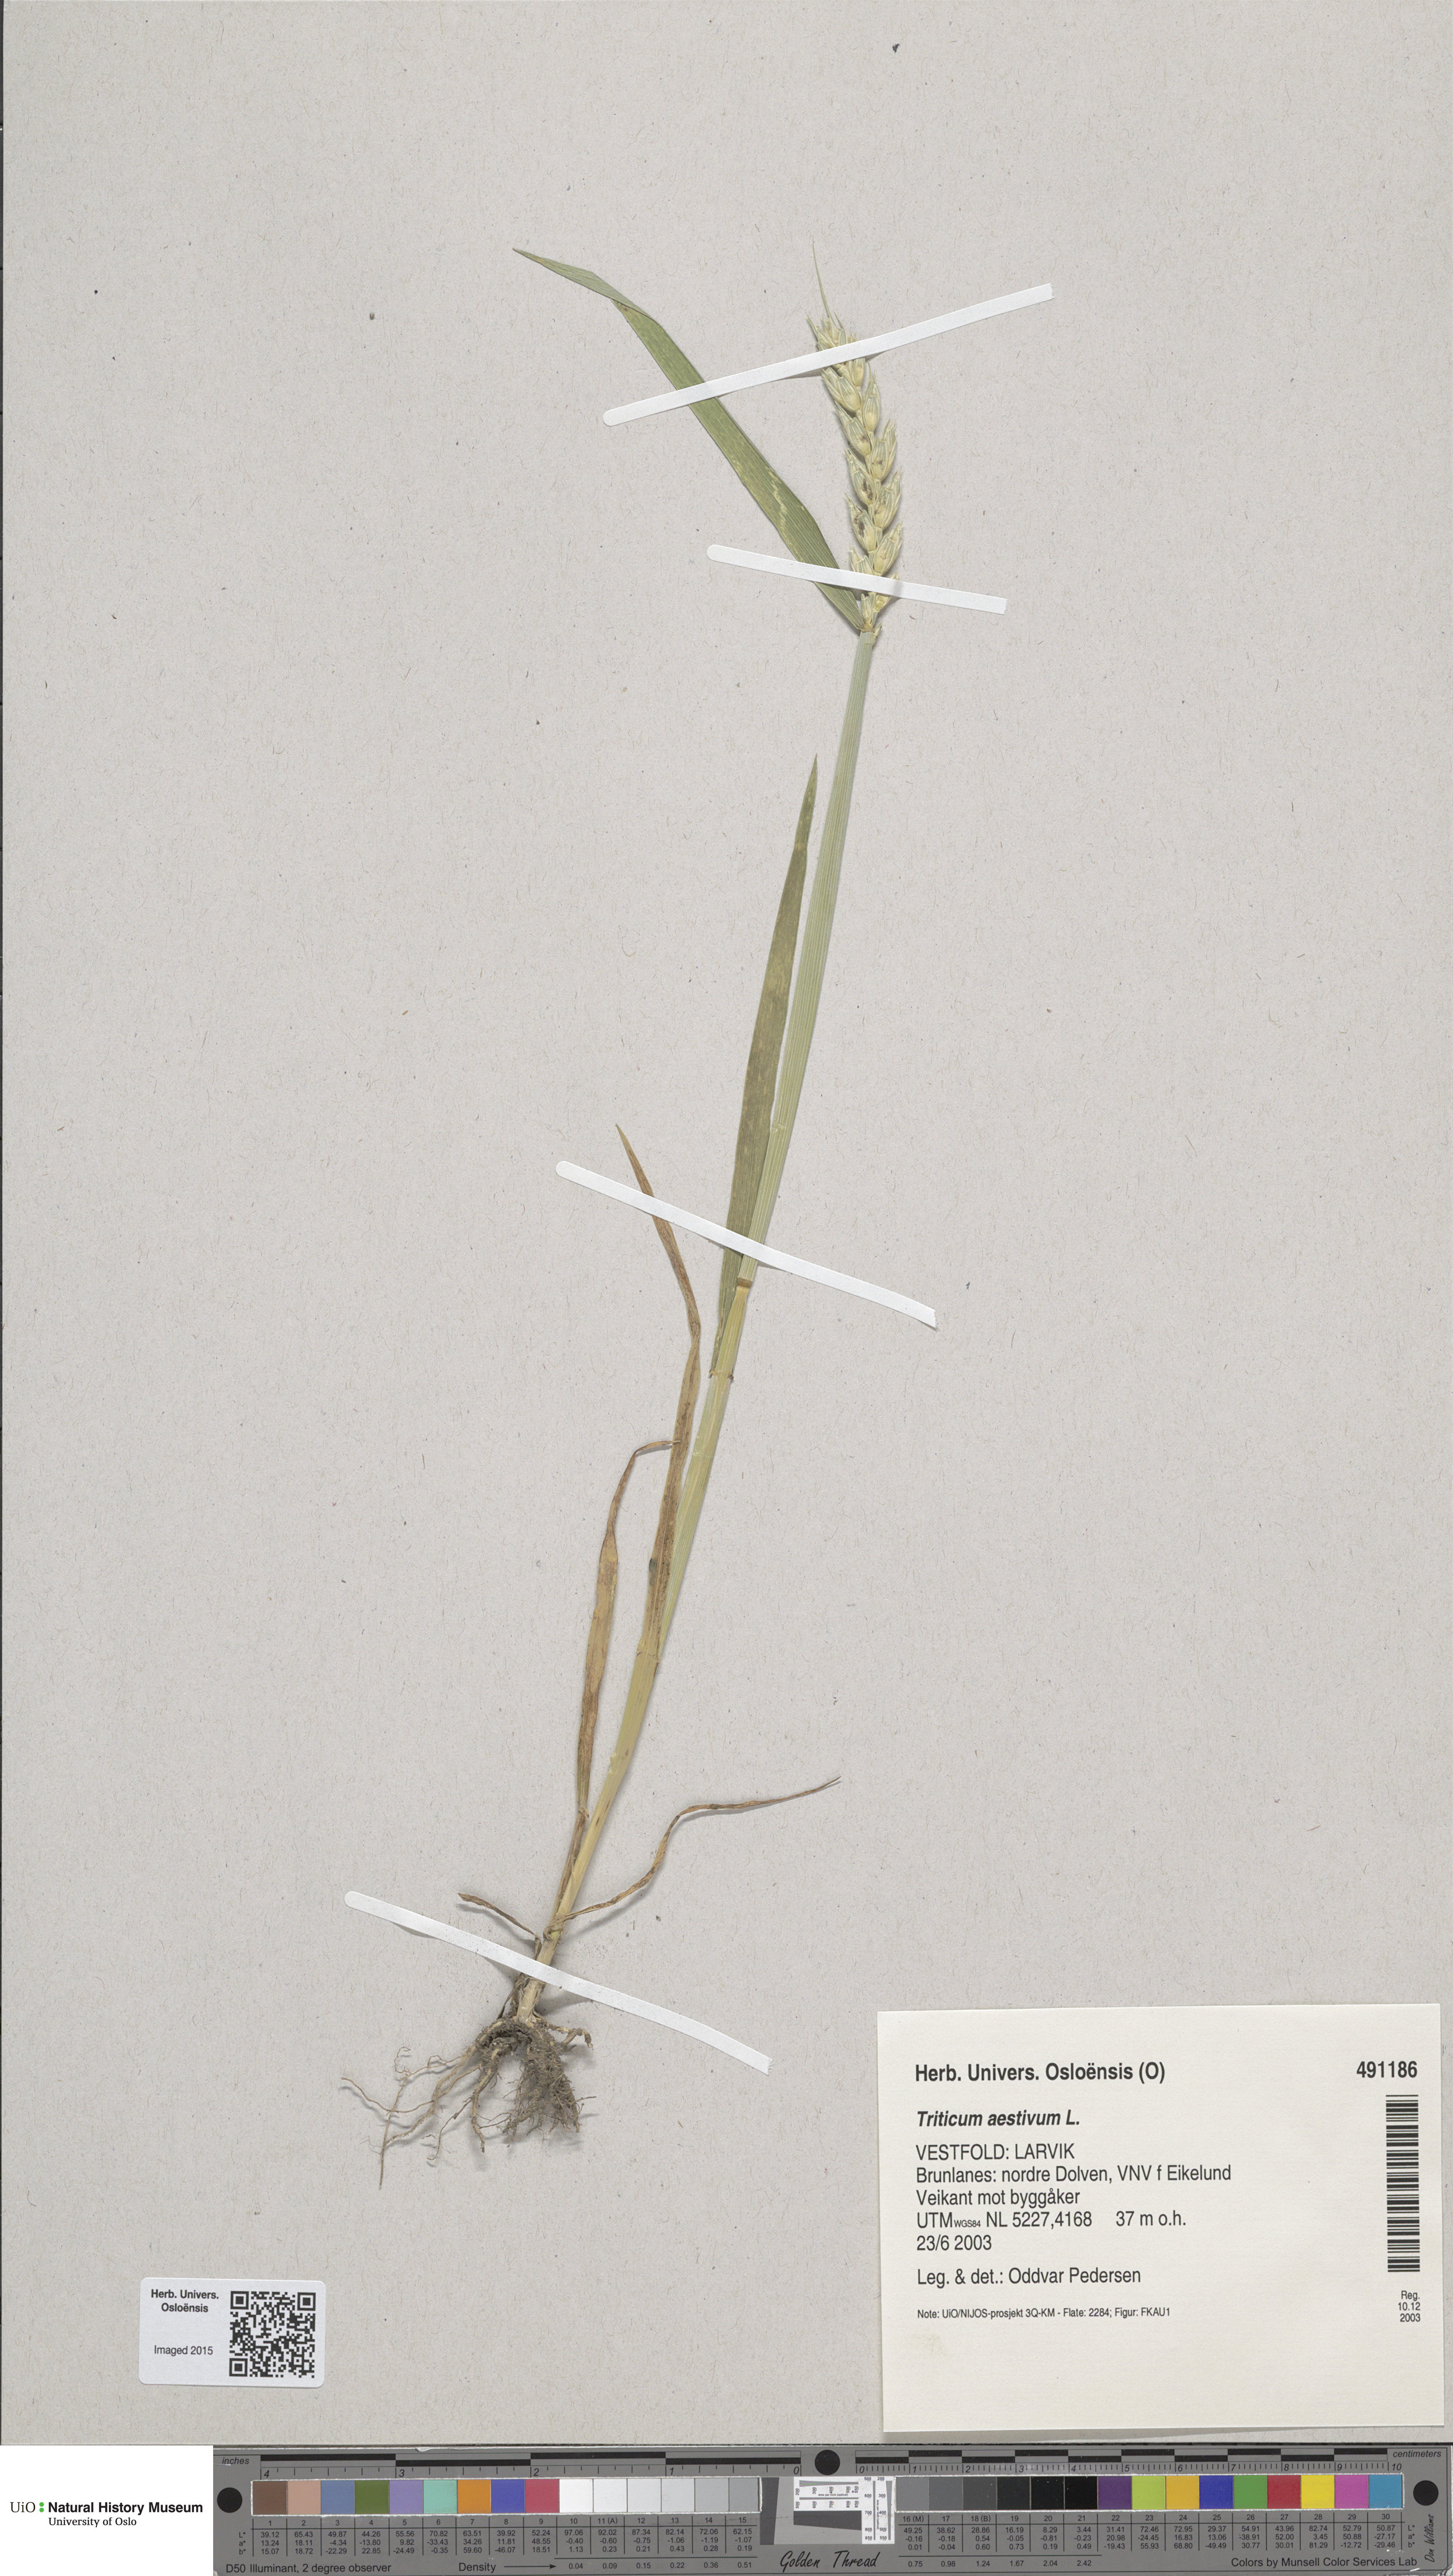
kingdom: Plantae
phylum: Tracheophyta
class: Liliopsida
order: Poales
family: Poaceae
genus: Triticum
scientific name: Triticum aestivum
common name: Common wheat
